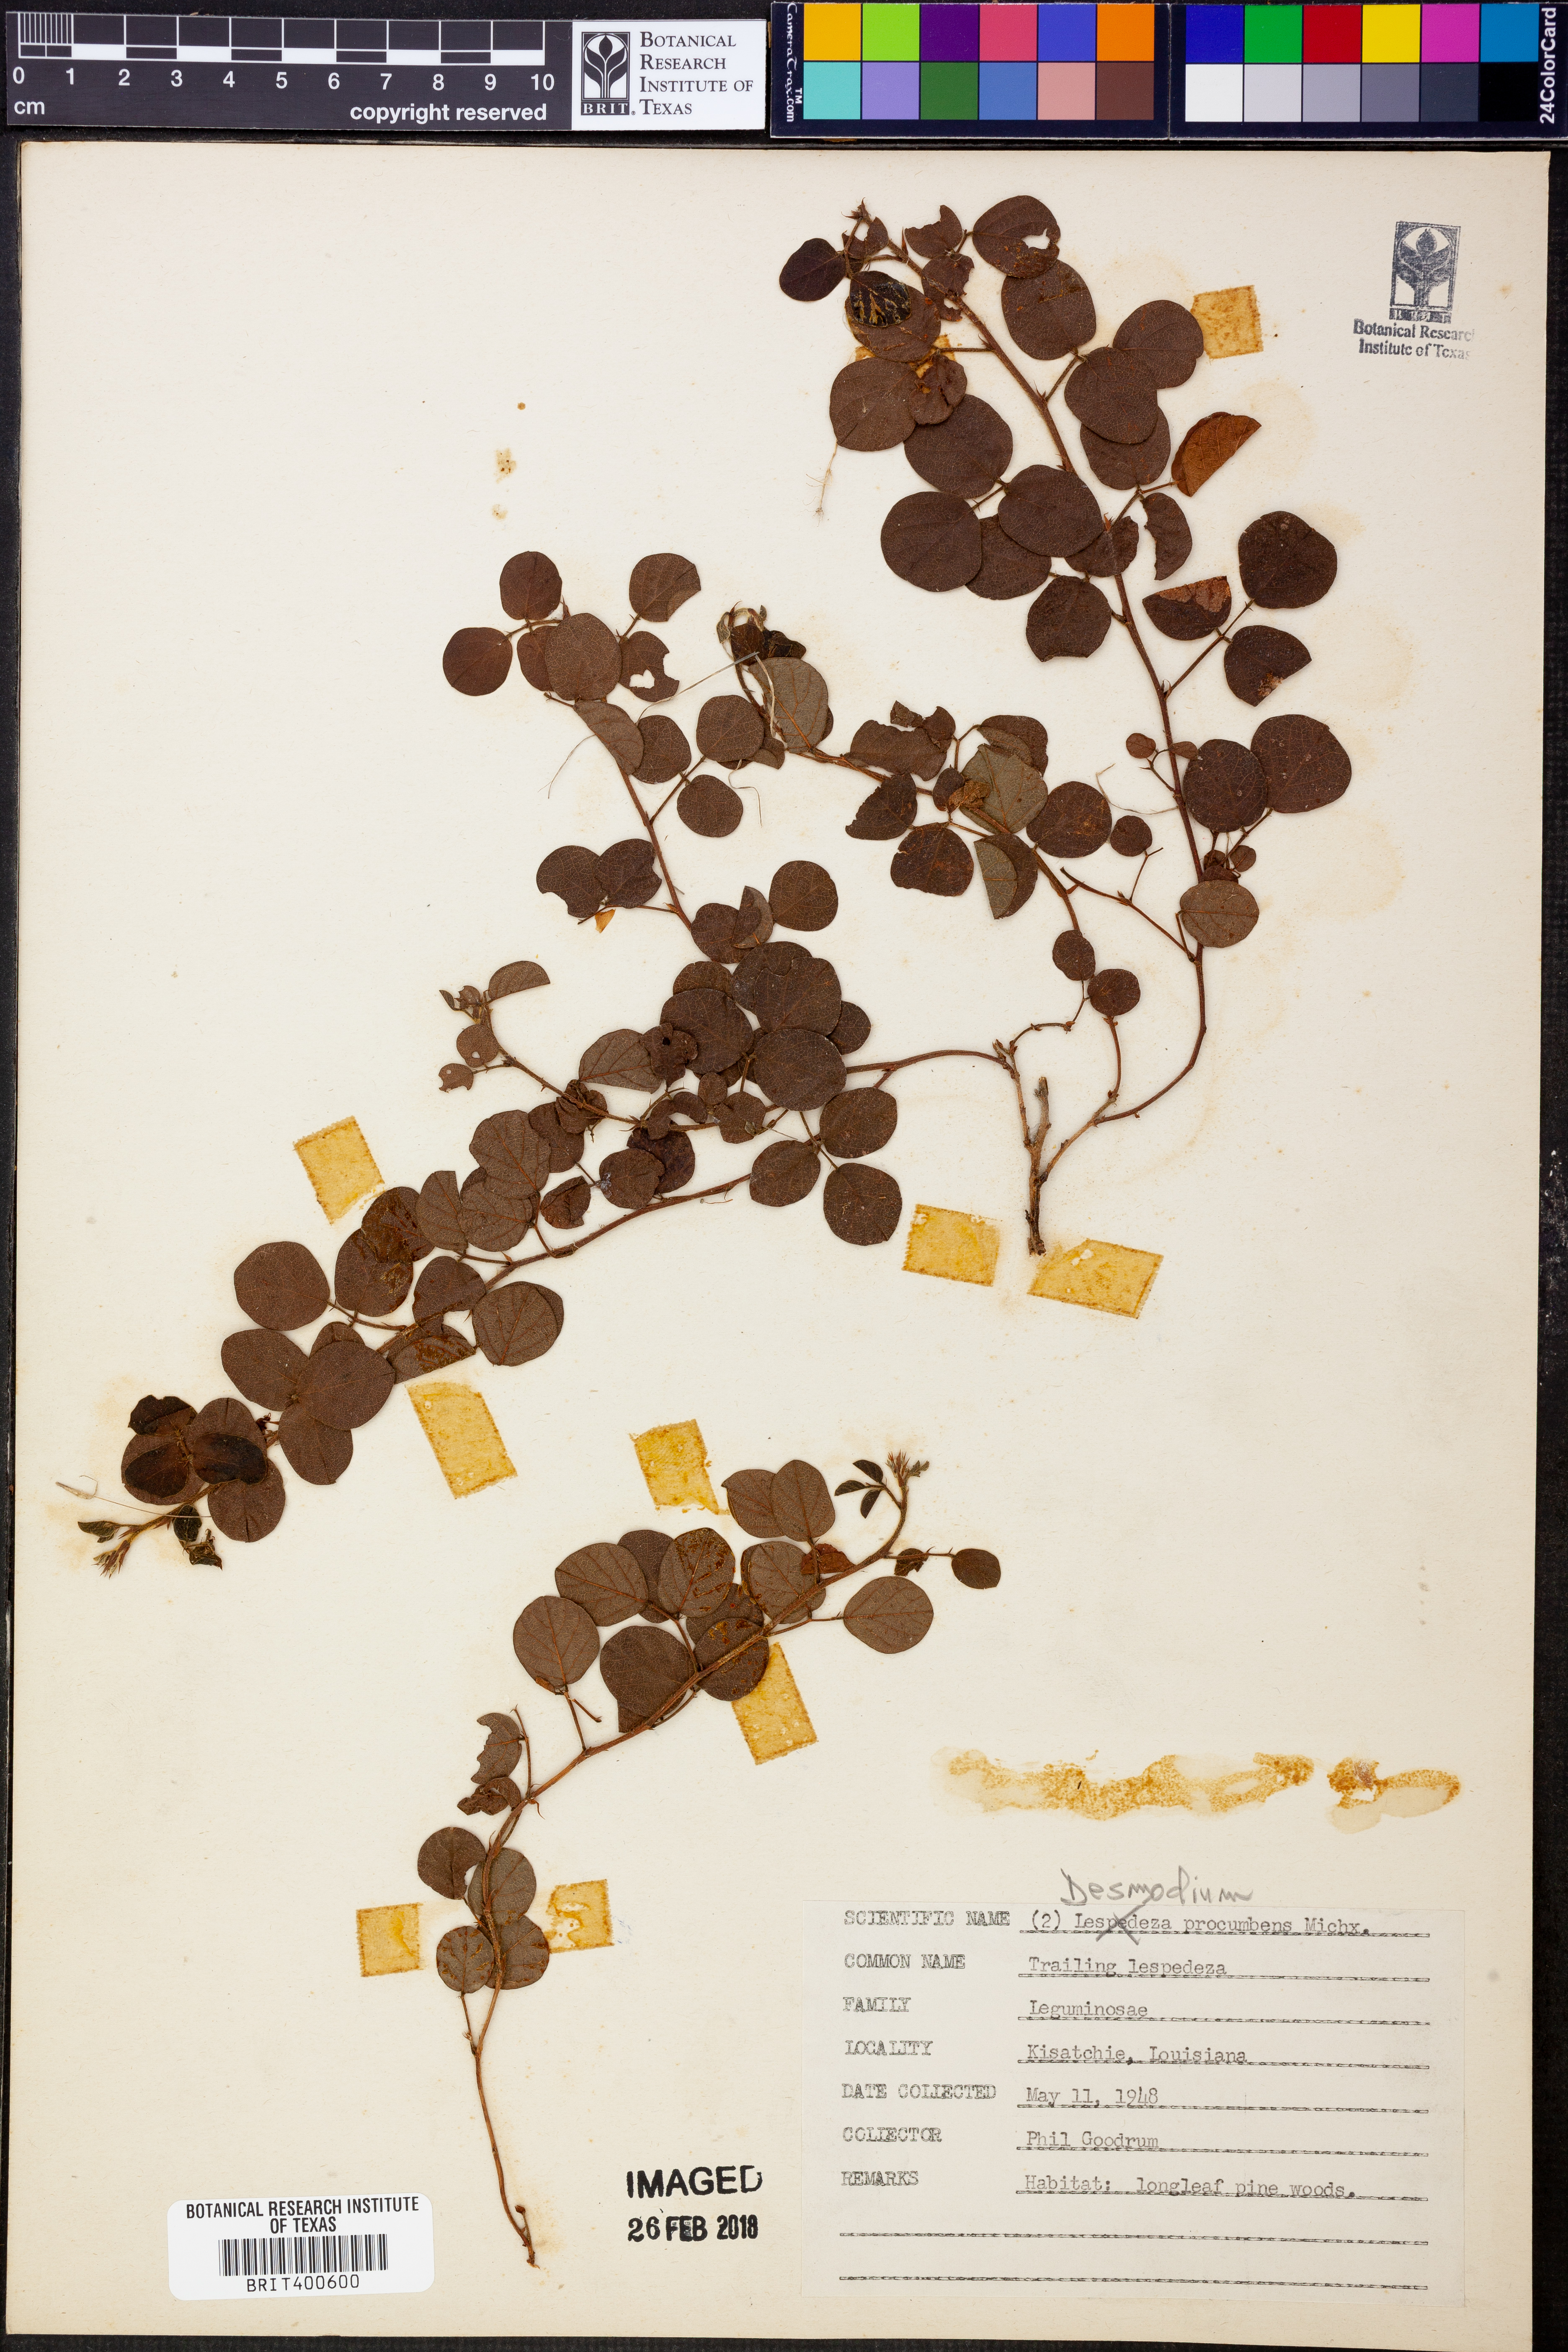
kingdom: Plantae
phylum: Tracheophyta
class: Magnoliopsida
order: Fabales
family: Fabaceae
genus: Desmodium
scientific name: Desmodium procumbens
